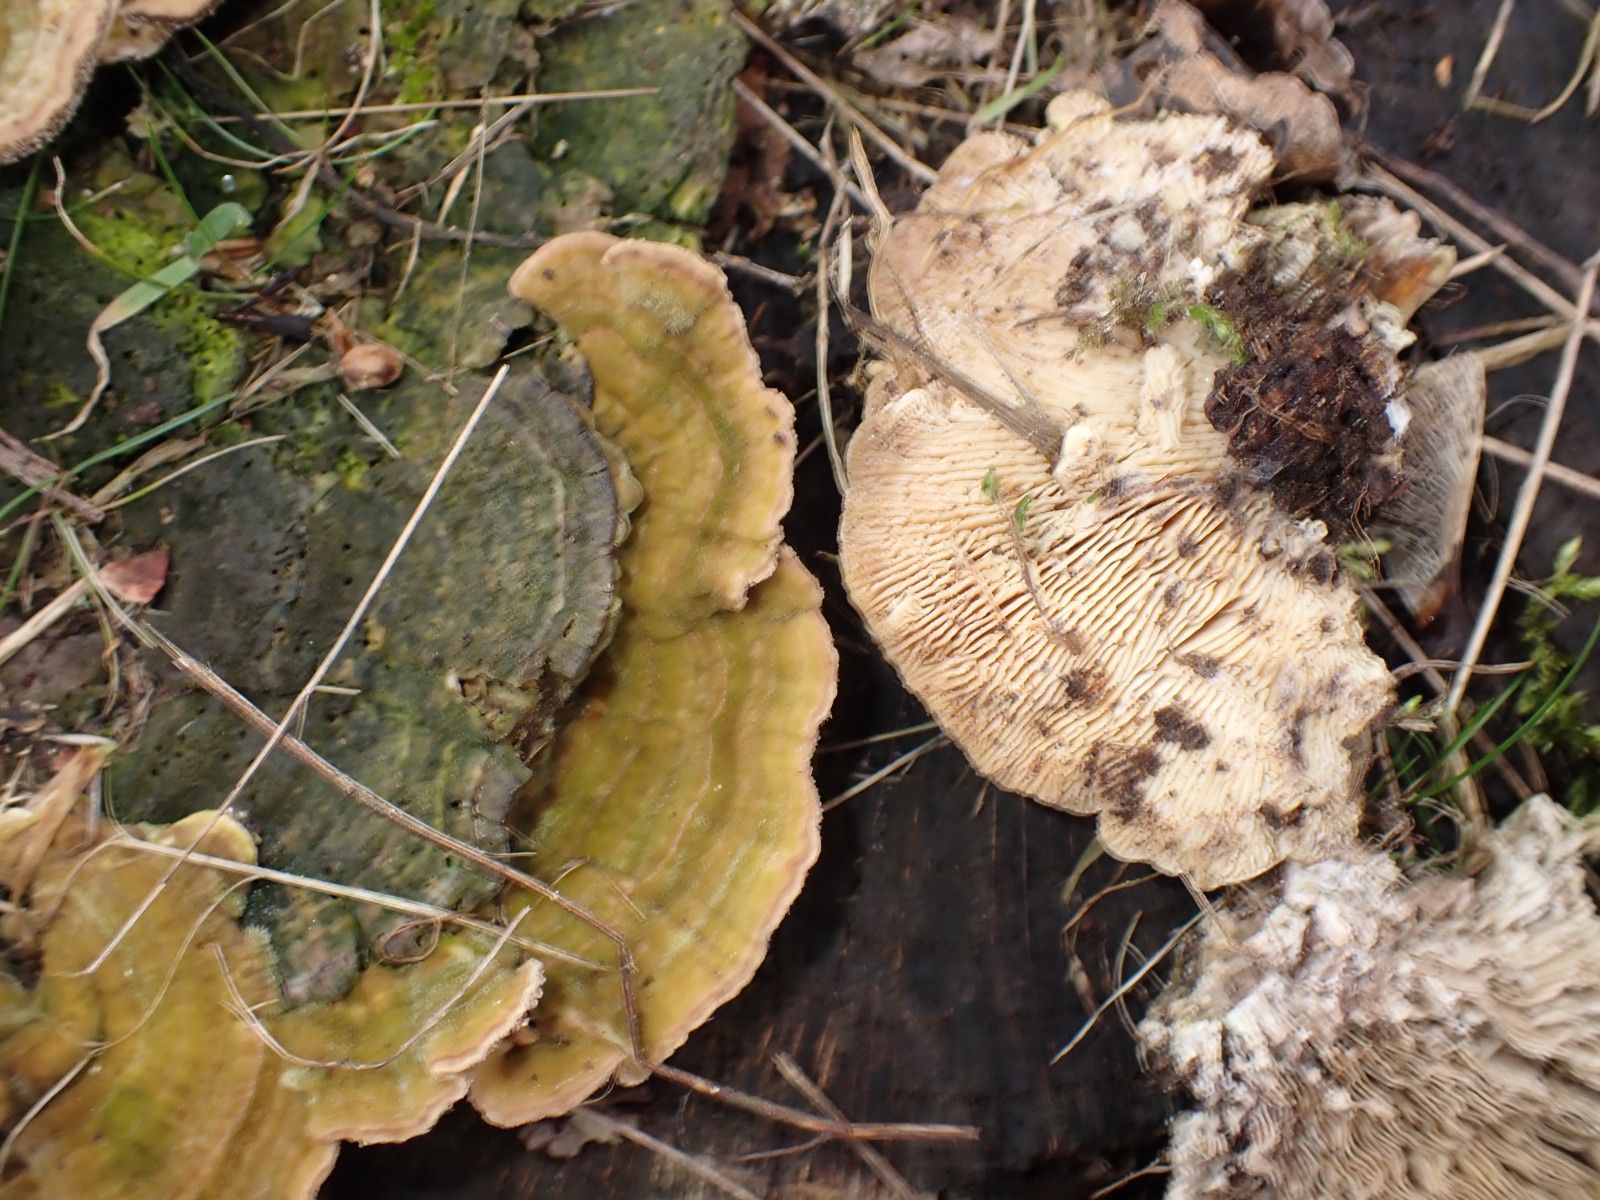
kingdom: Fungi
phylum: Basidiomycota
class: Agaricomycetes
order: Polyporales
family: Polyporaceae
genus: Lenzites
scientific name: Lenzites betulinus
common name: birke-læderporesvamp
